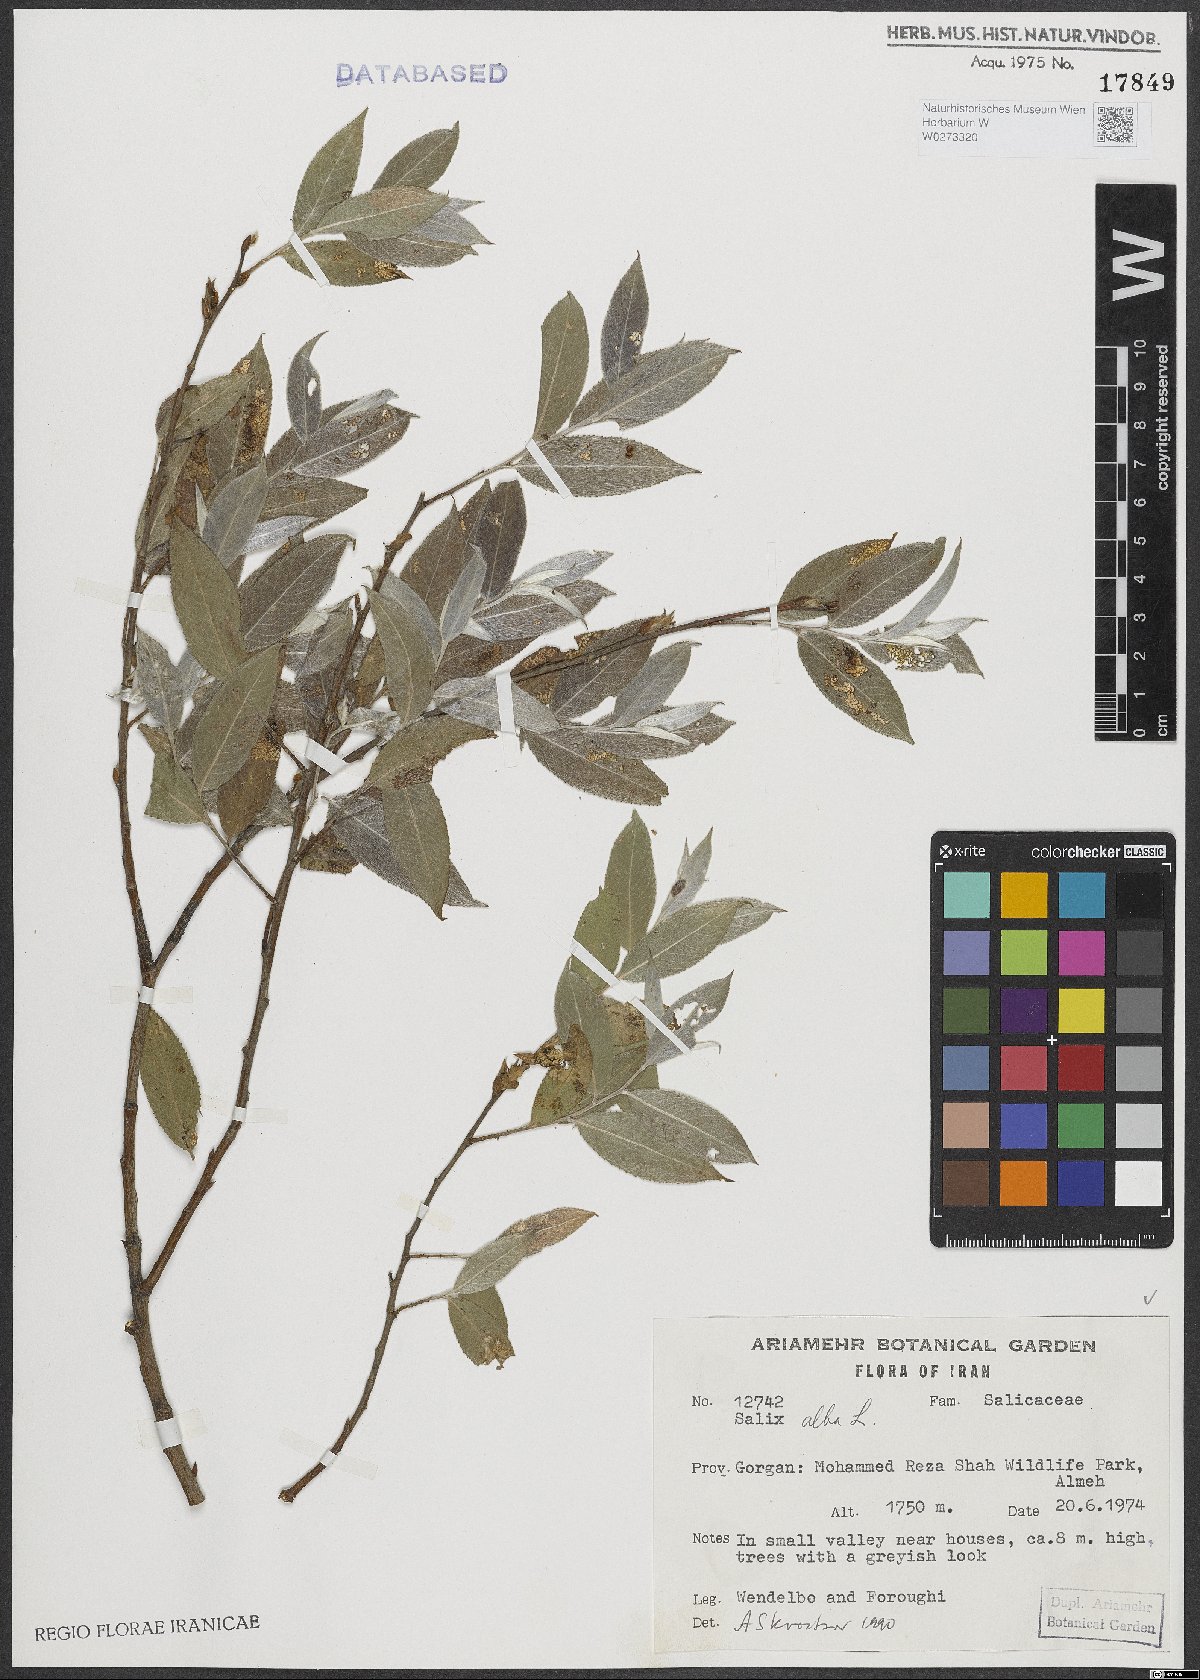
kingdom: Plantae
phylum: Tracheophyta
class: Magnoliopsida
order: Malpighiales
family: Salicaceae
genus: Salix
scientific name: Salix alba
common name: White willow
